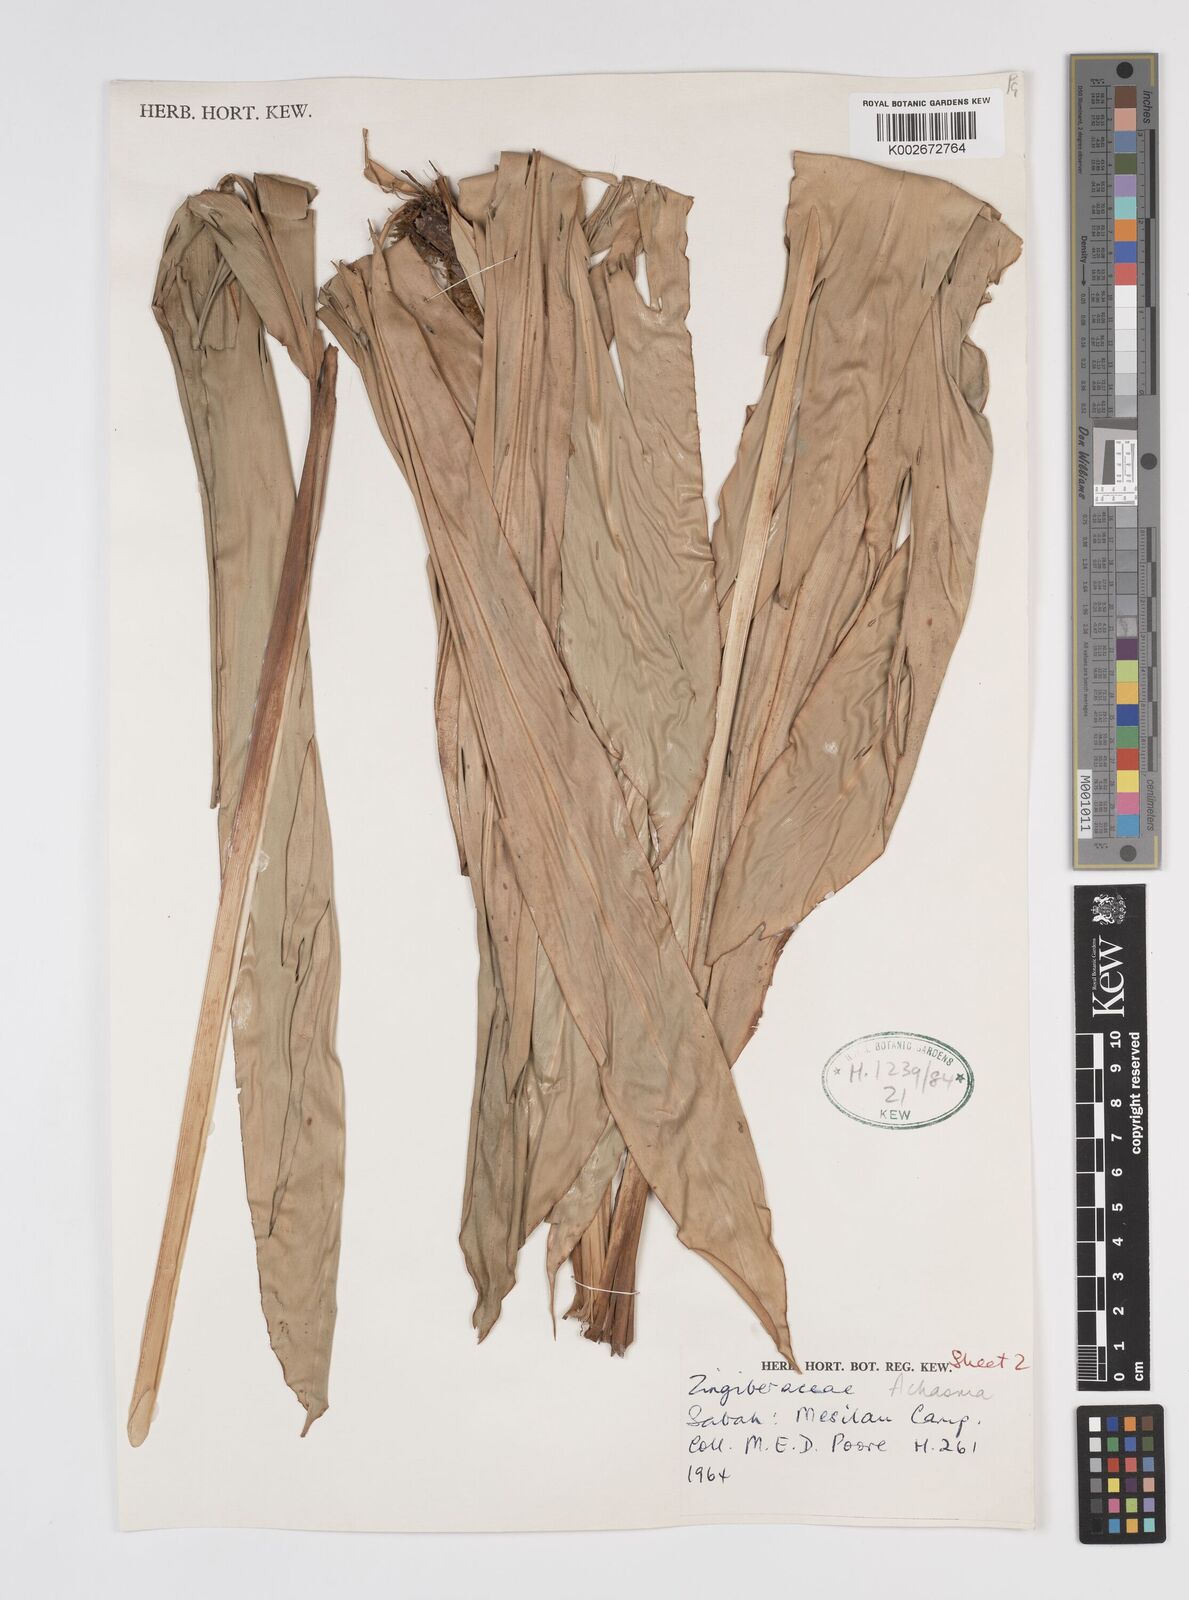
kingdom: Plantae
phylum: Tracheophyta
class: Liliopsida
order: Zingiberales
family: Zingiberaceae
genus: Etlingera
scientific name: Etlingera punicea
